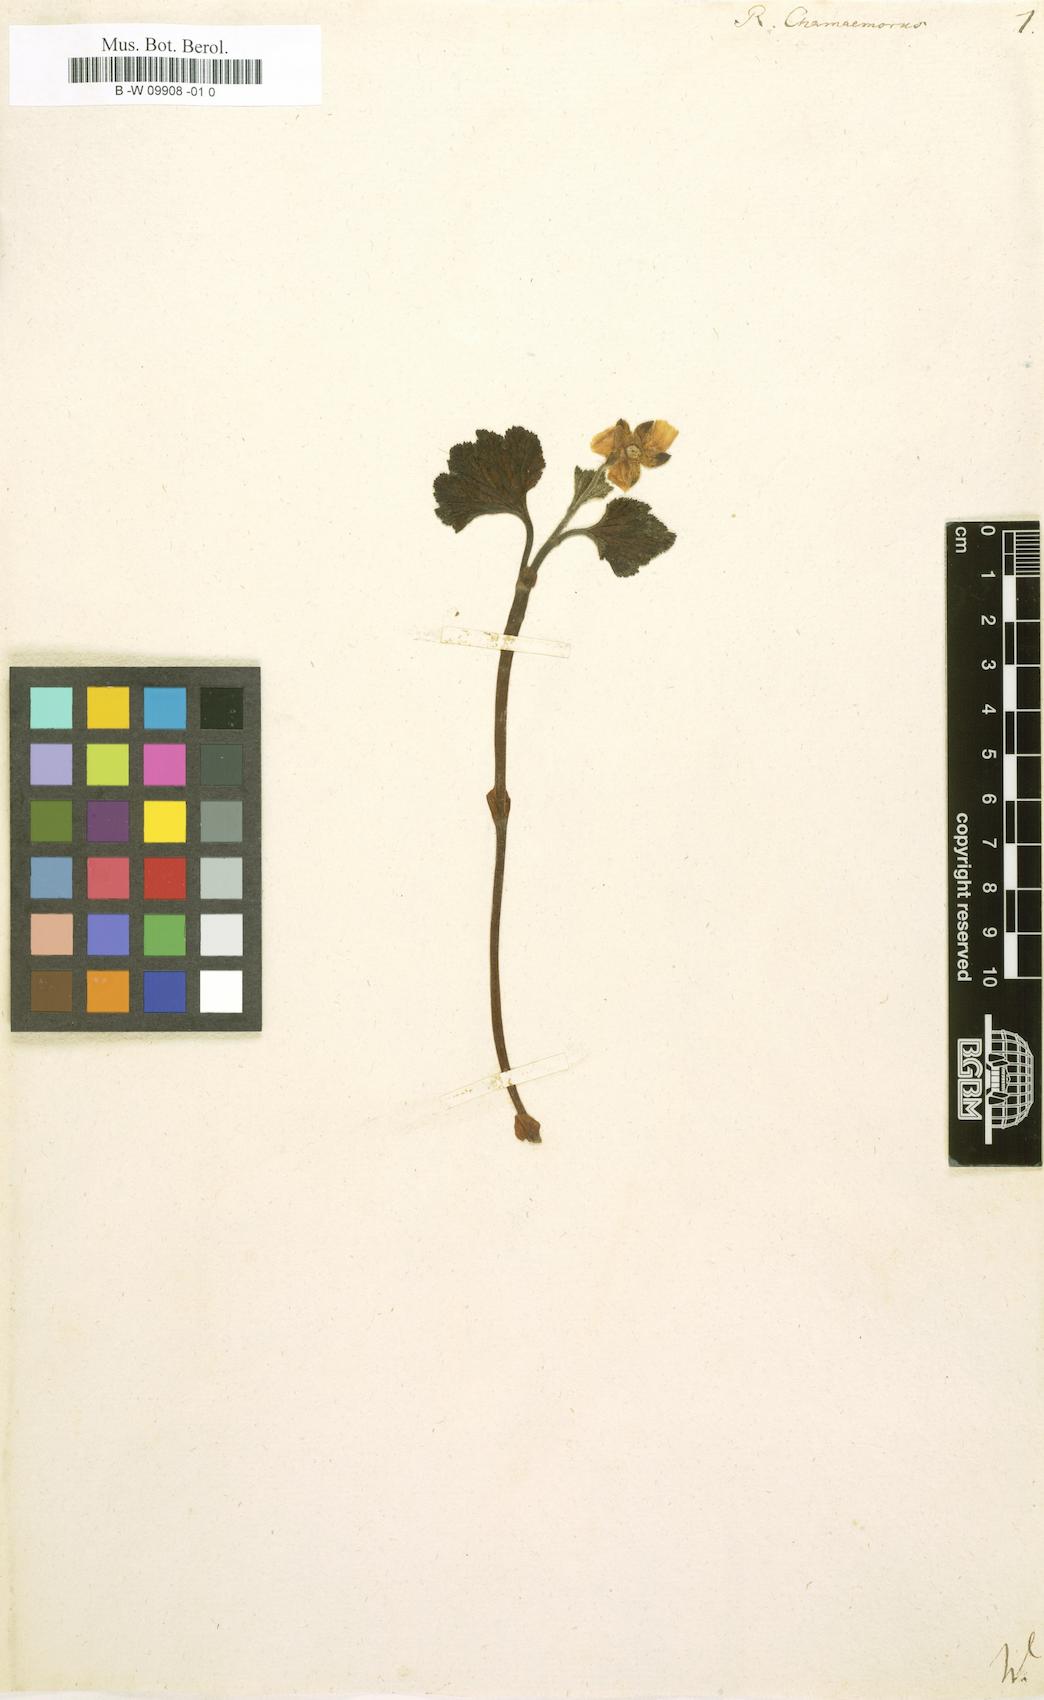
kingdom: Plantae
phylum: Tracheophyta
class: Magnoliopsida
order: Rosales
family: Rosaceae
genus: Rubus
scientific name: Rubus chamaemorus
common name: Cloudberry
